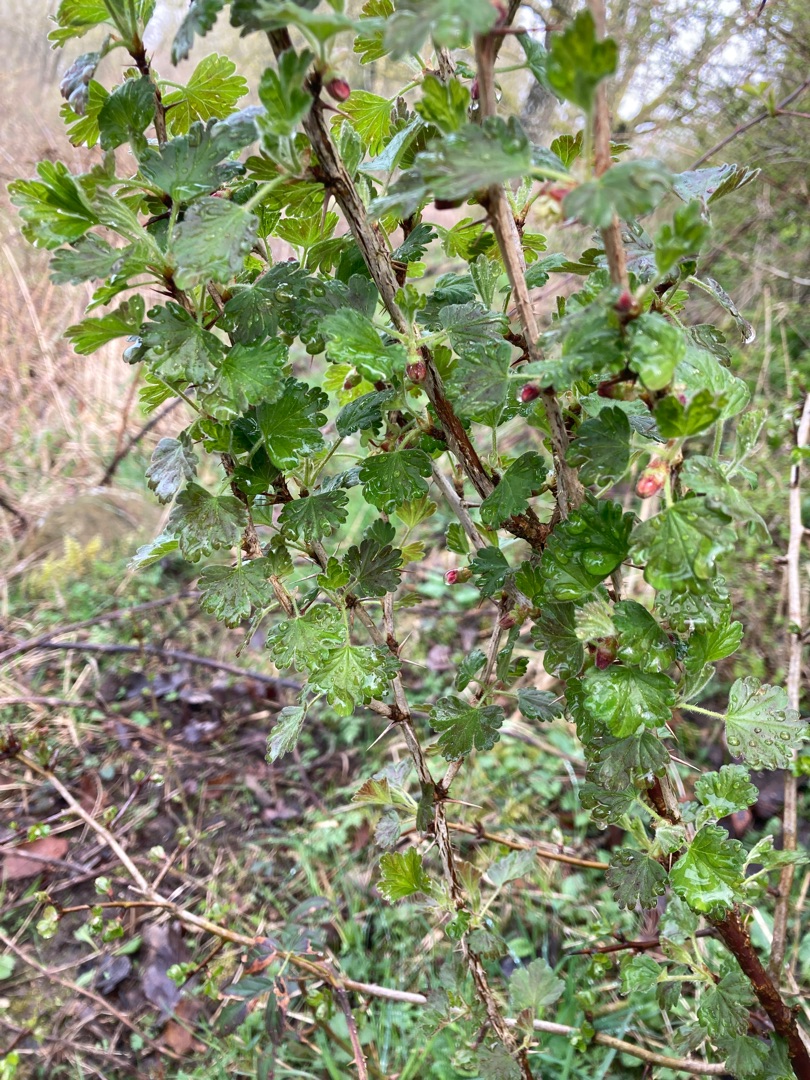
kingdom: Plantae
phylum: Tracheophyta
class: Magnoliopsida
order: Saxifragales
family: Grossulariaceae
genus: Ribes
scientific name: Ribes uva-crispa
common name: Stikkelsbær
